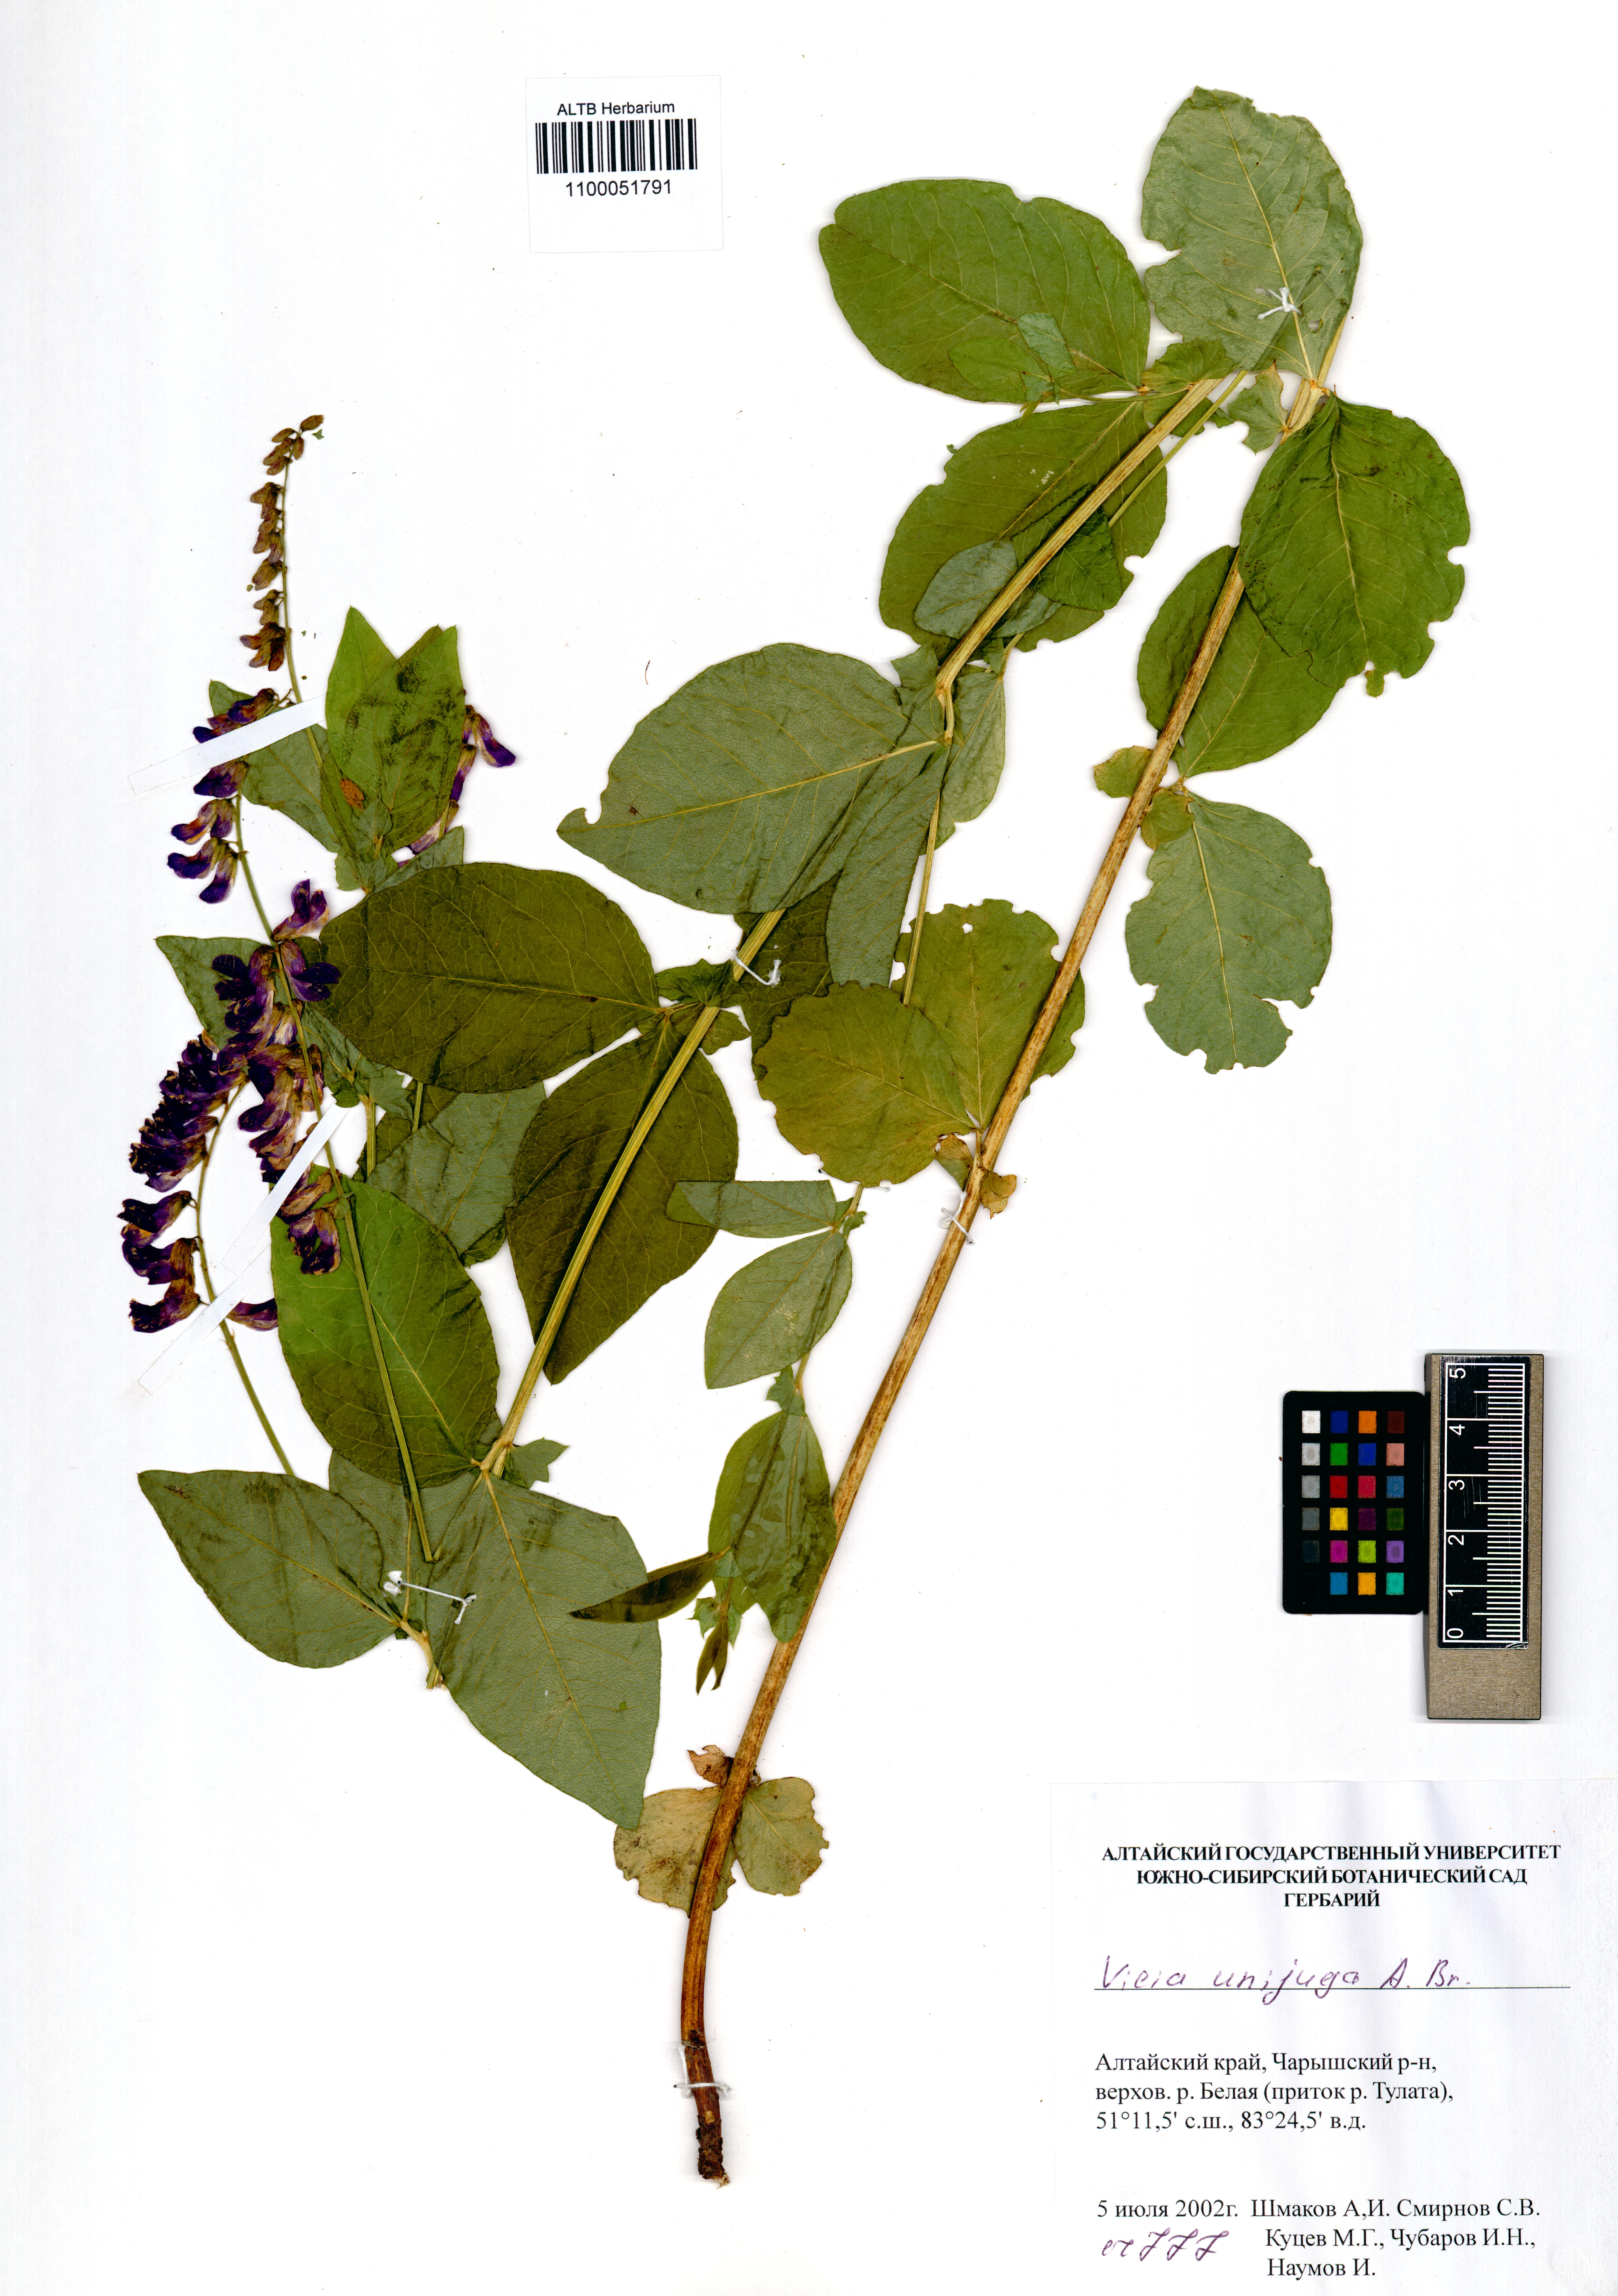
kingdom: Plantae
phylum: Tracheophyta
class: Magnoliopsida
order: Fabales
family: Fabaceae
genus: Vicia
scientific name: Vicia unijuga
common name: Two-leaf vetch
